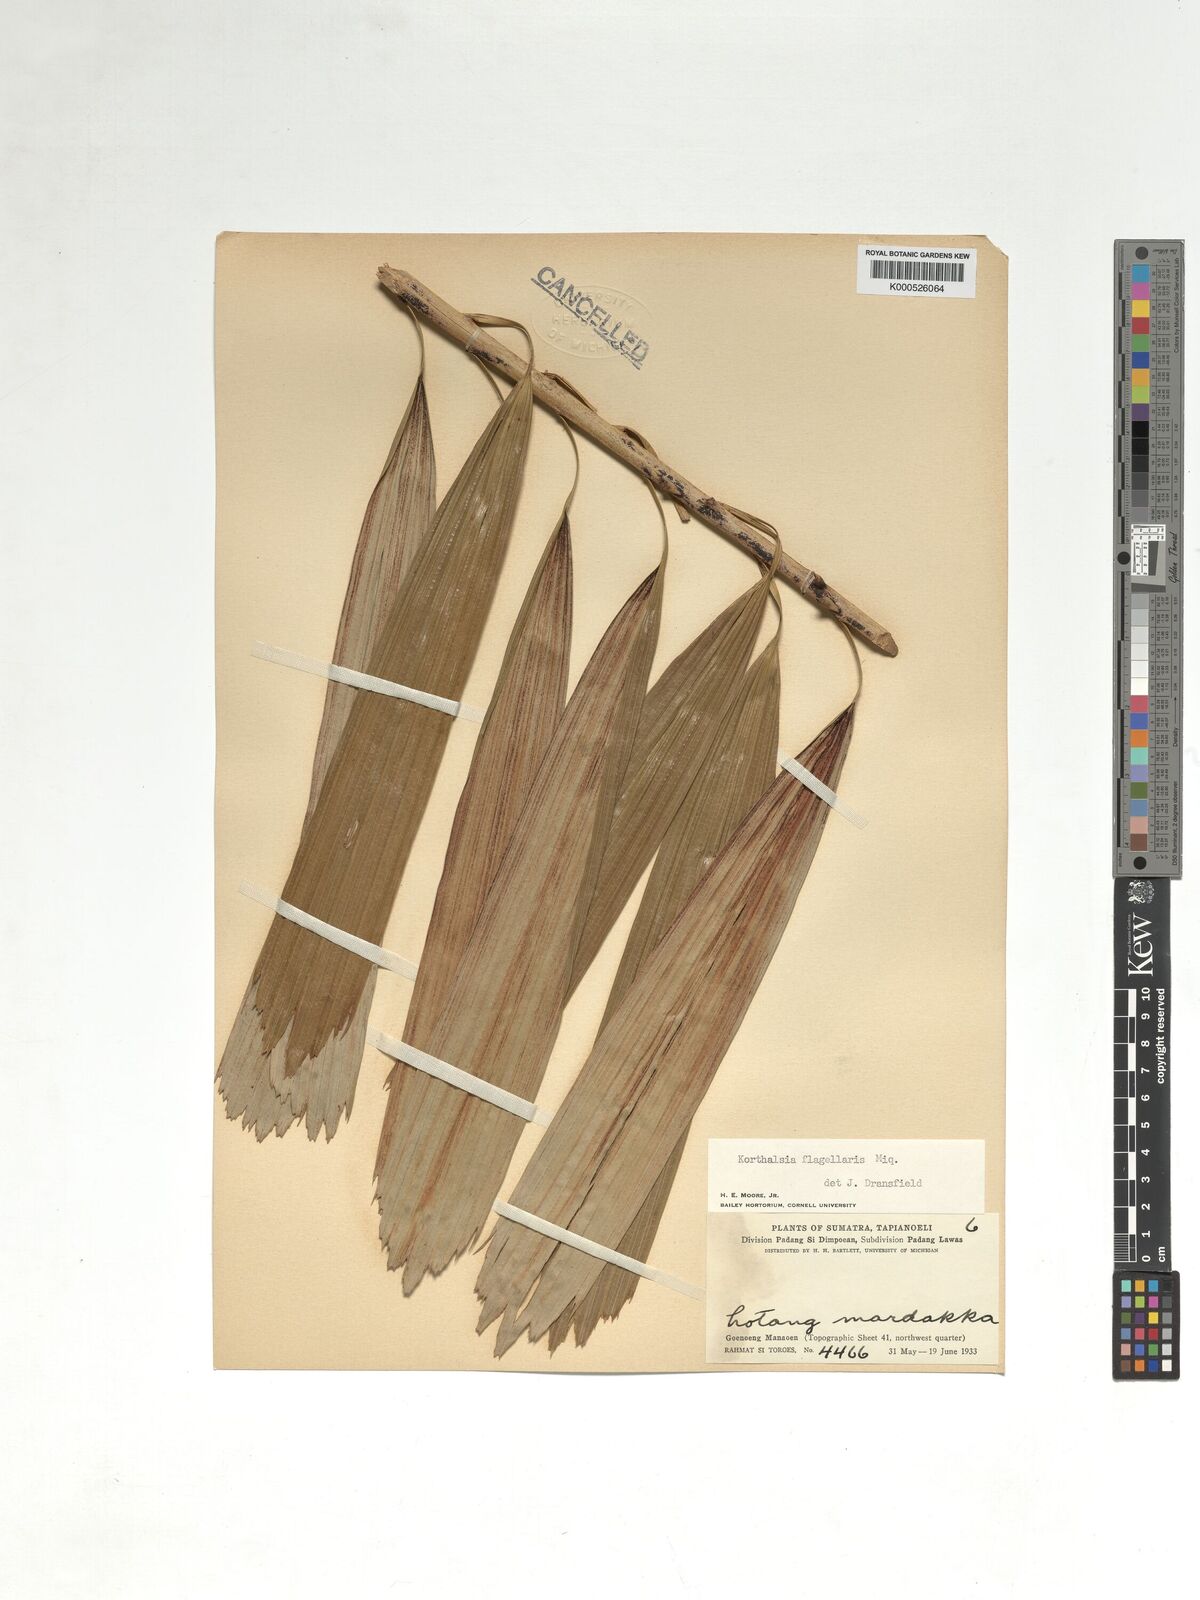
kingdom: Plantae
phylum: Tracheophyta
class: Liliopsida
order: Arecales
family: Arecaceae
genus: Korthalsia
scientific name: Korthalsia flagellaris
